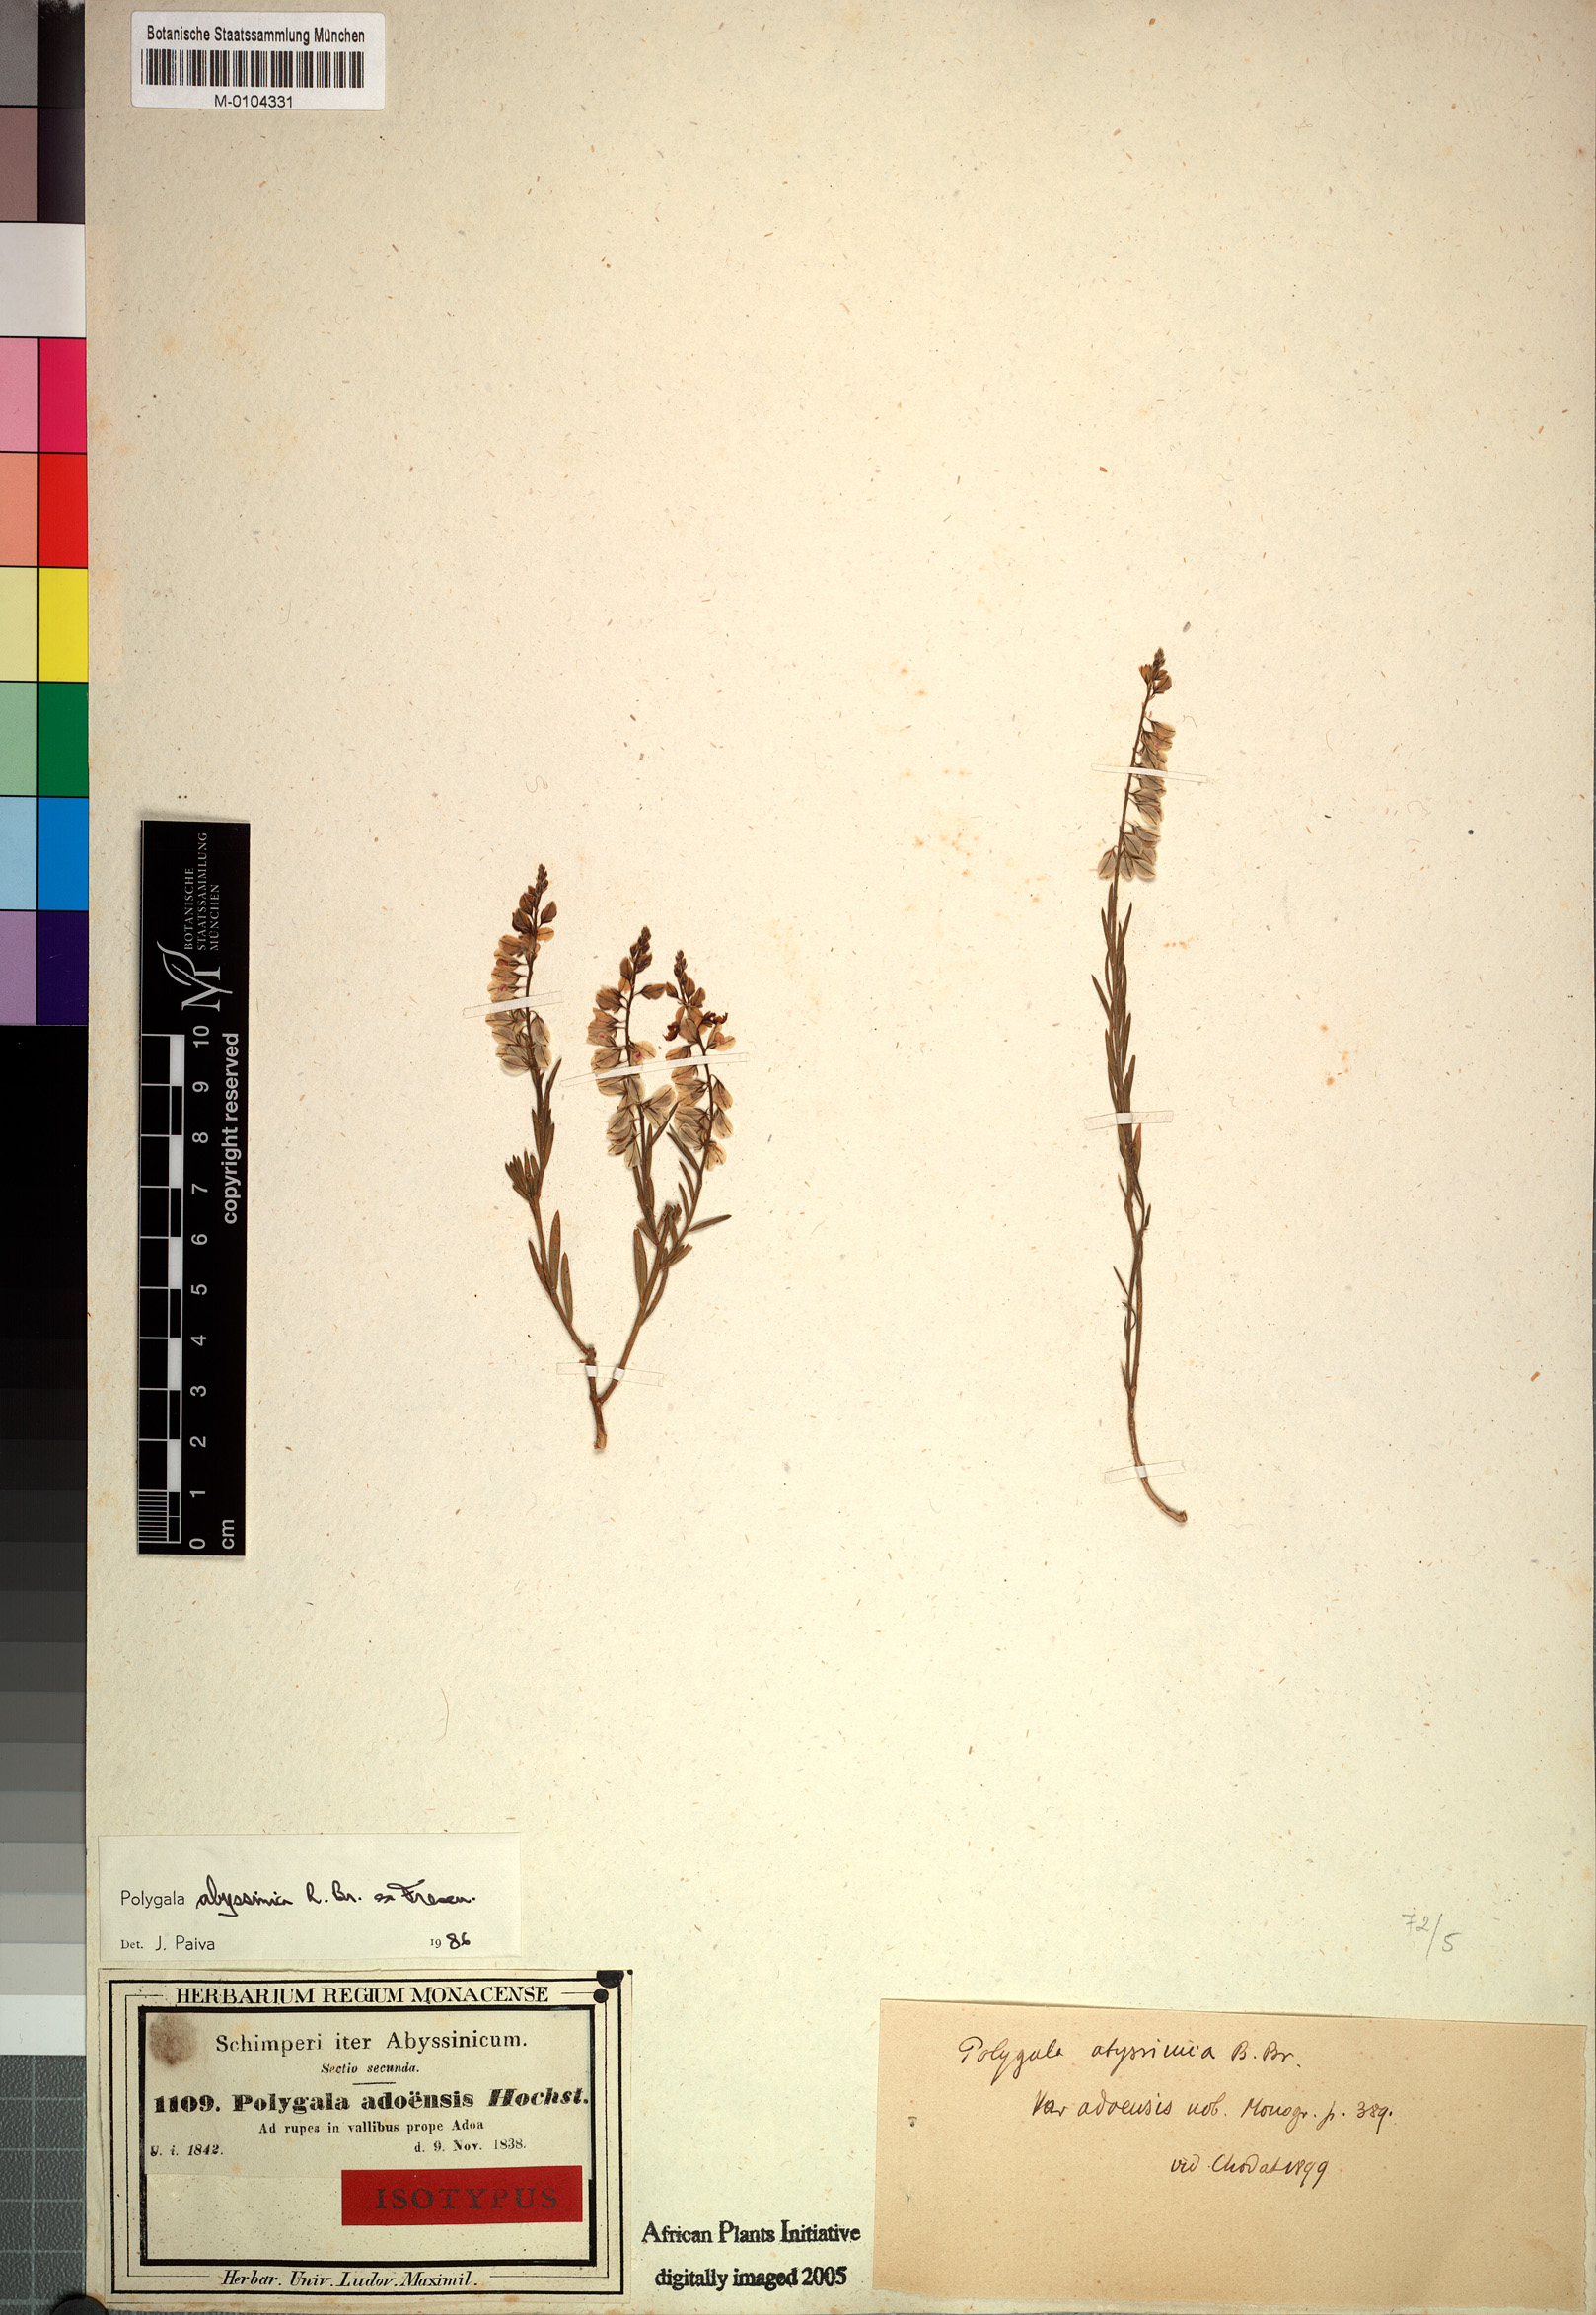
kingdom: Plantae
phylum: Tracheophyta
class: Magnoliopsida
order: Fabales
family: Polygalaceae
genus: Polygala
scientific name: Polygala abyssinica
